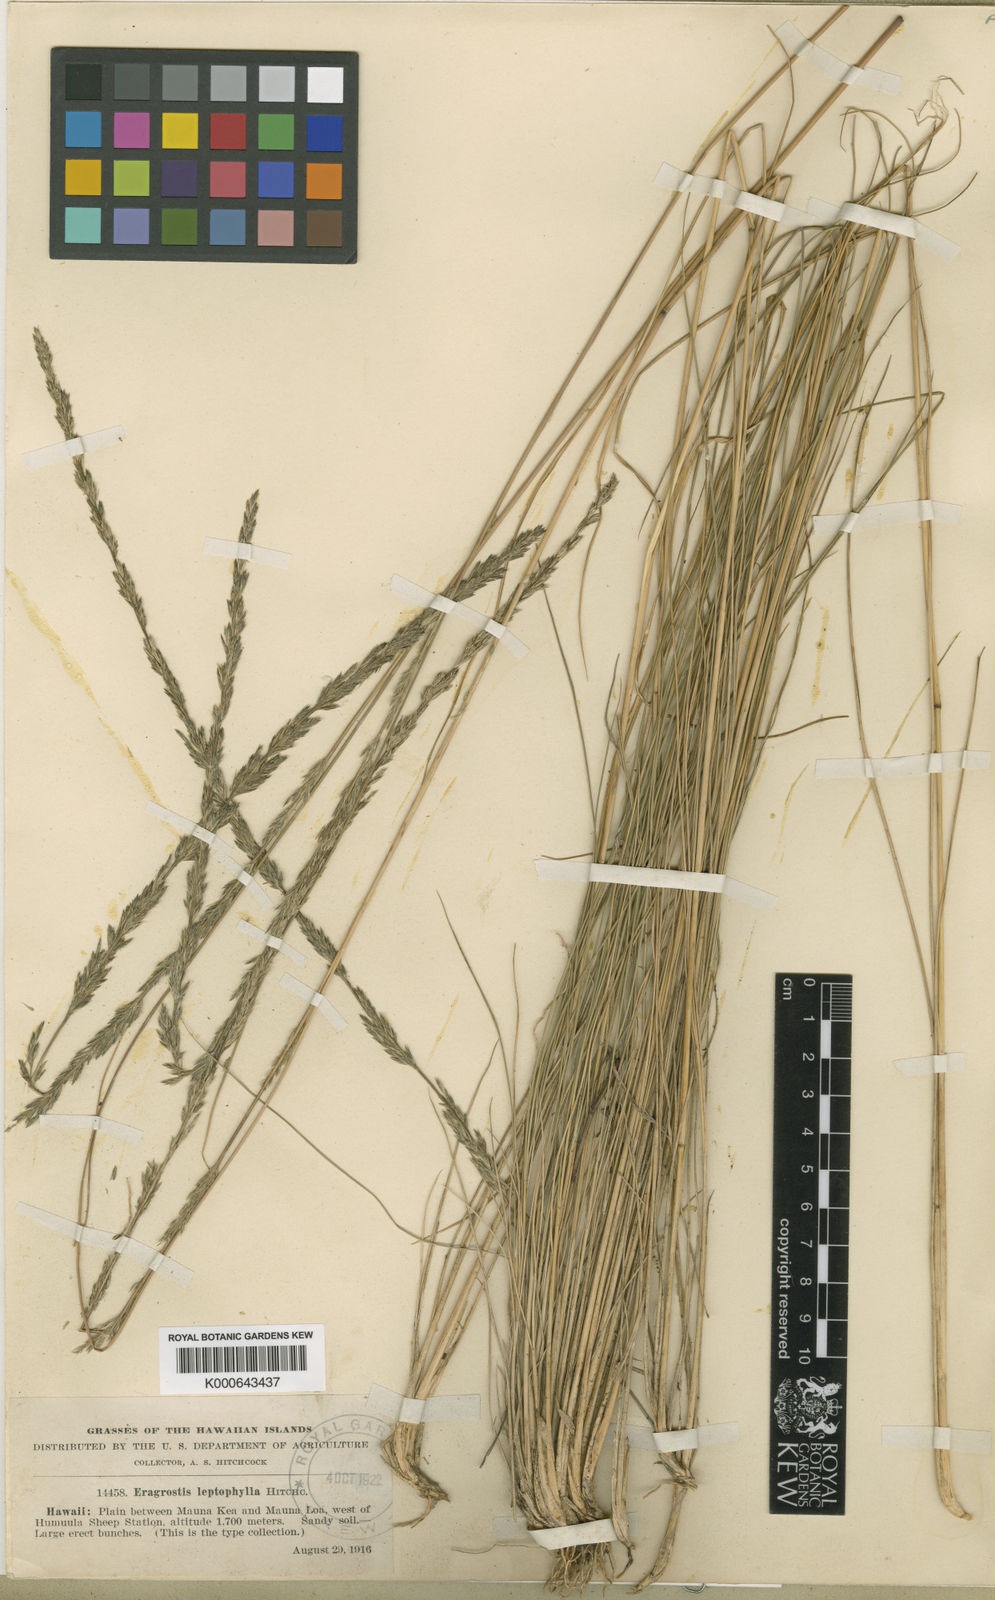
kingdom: Plantae
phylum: Tracheophyta
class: Liliopsida
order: Poales
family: Poaceae
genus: Eragrostis
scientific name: Eragrostis leptophylla
